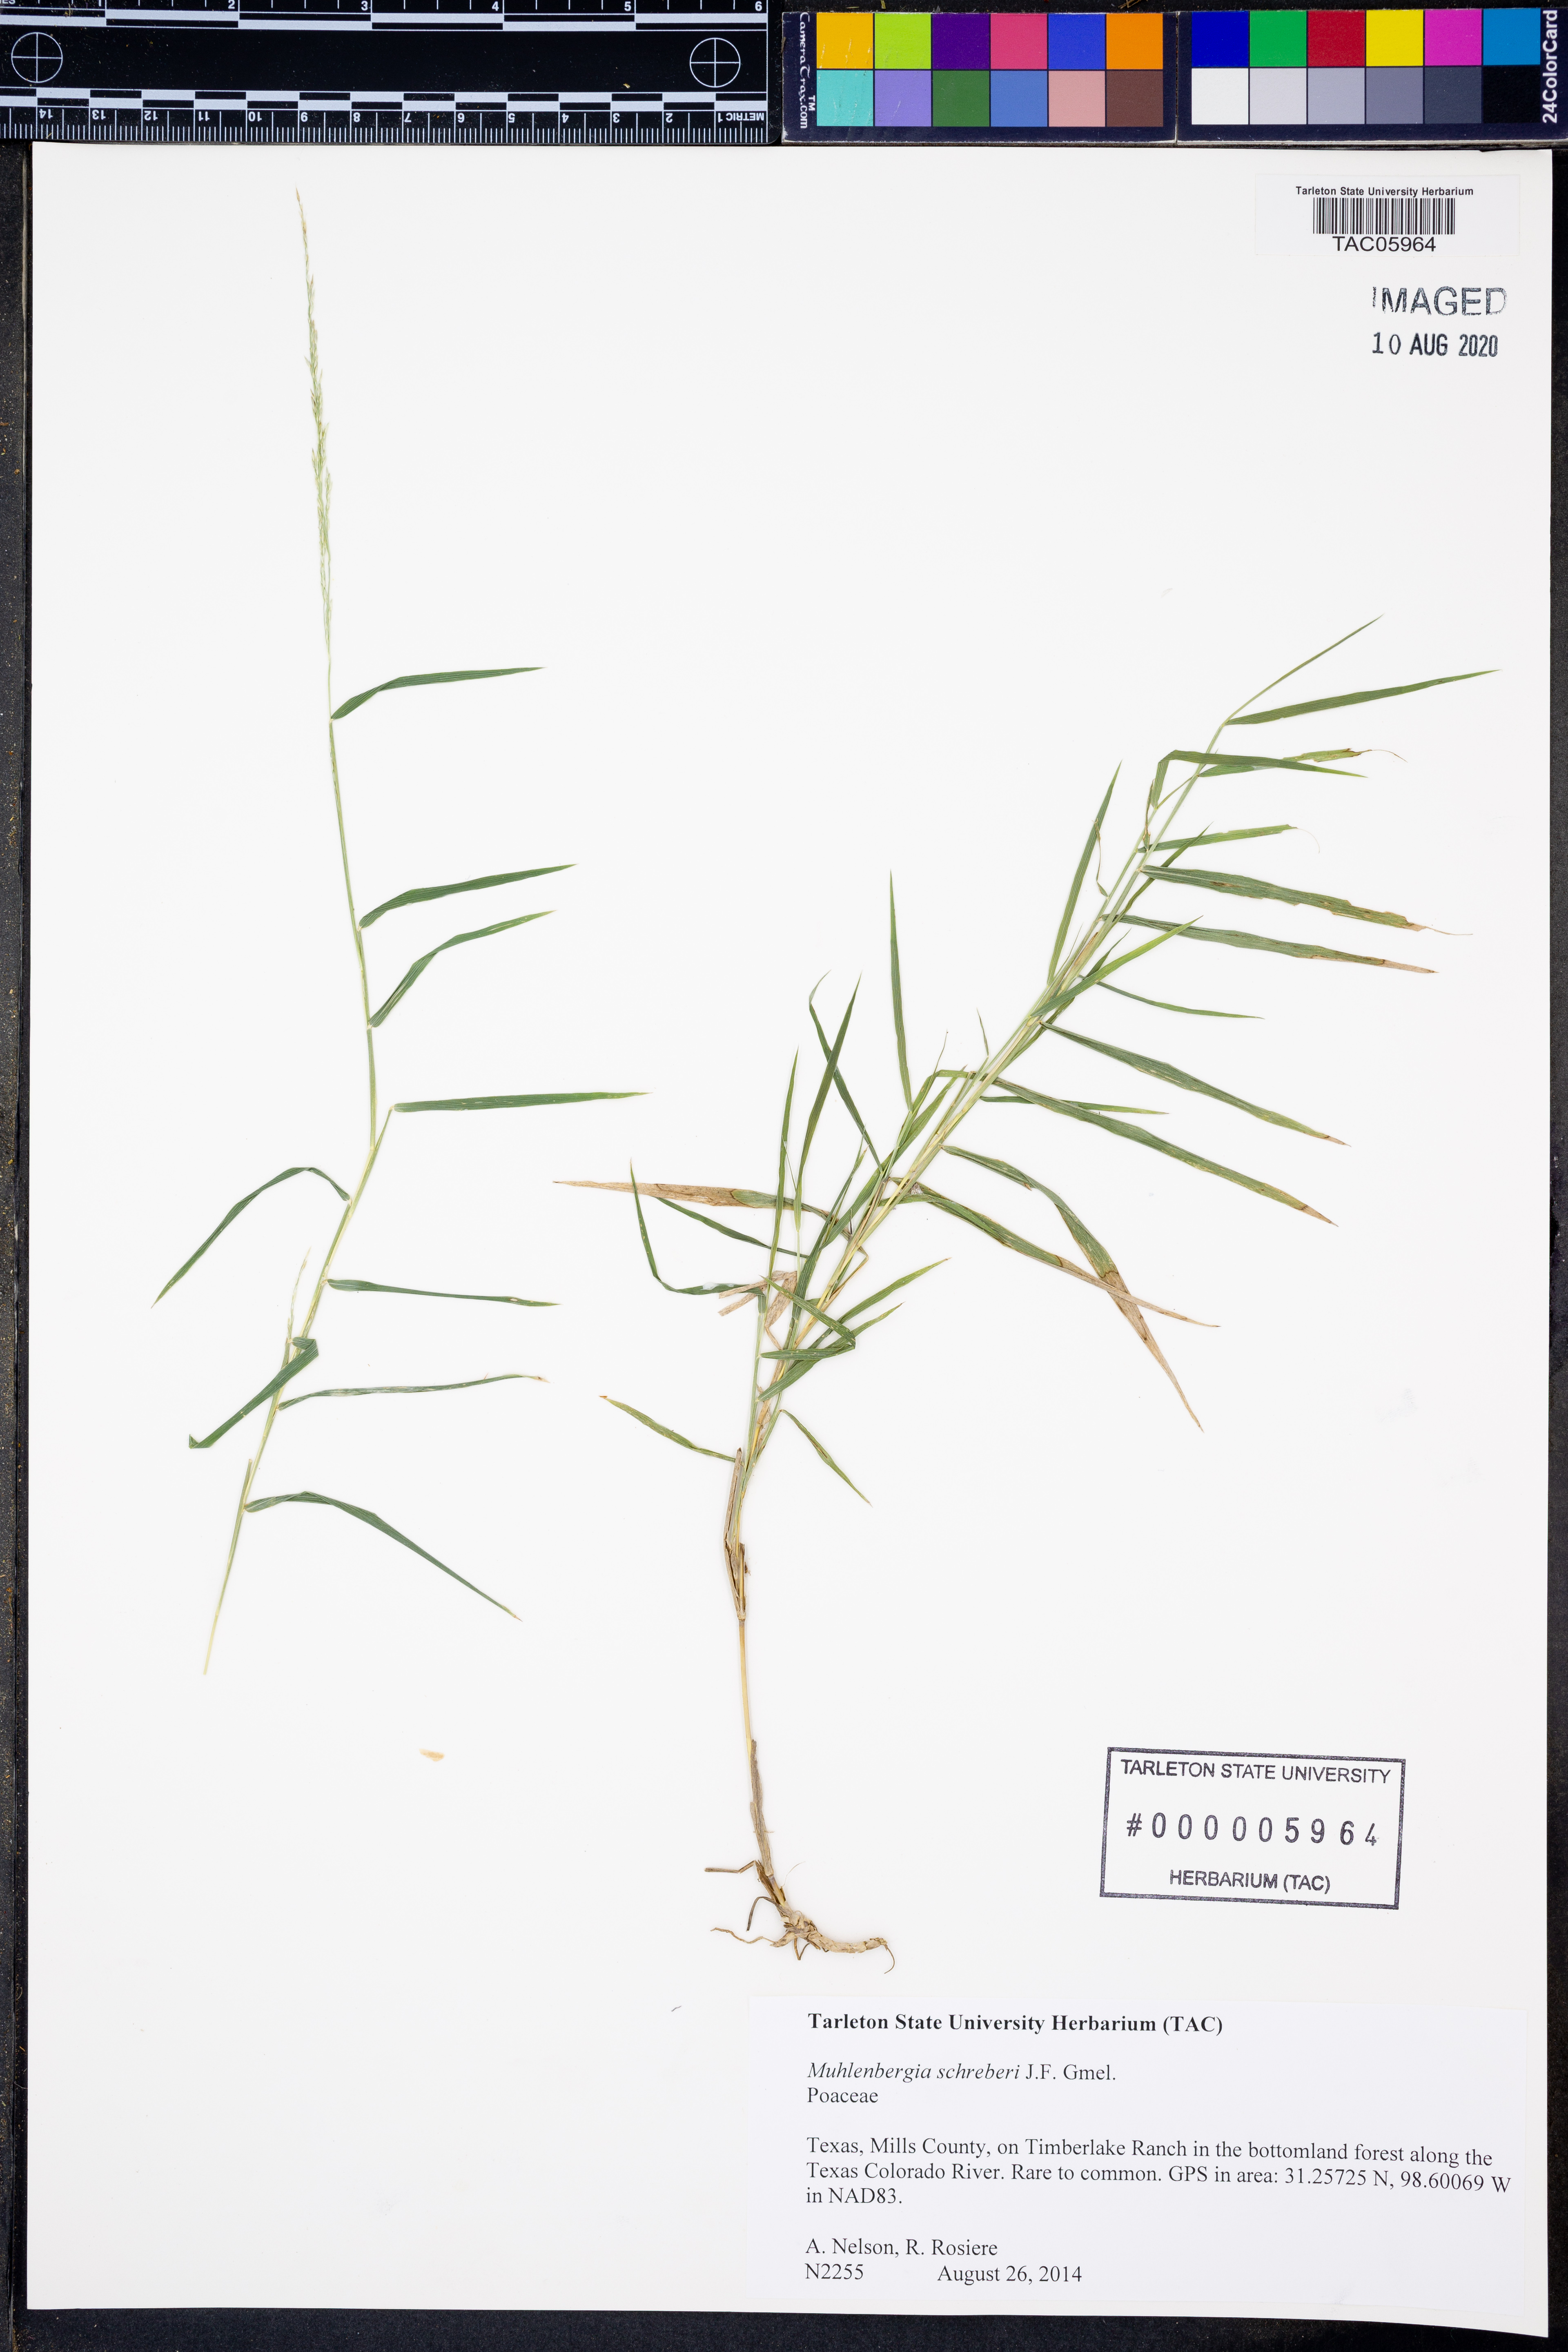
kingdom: Plantae
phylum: Tracheophyta
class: Liliopsida
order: Poales
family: Poaceae
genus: Muhlenbergia
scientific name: Muhlenbergia schreberi
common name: Nimblewill
